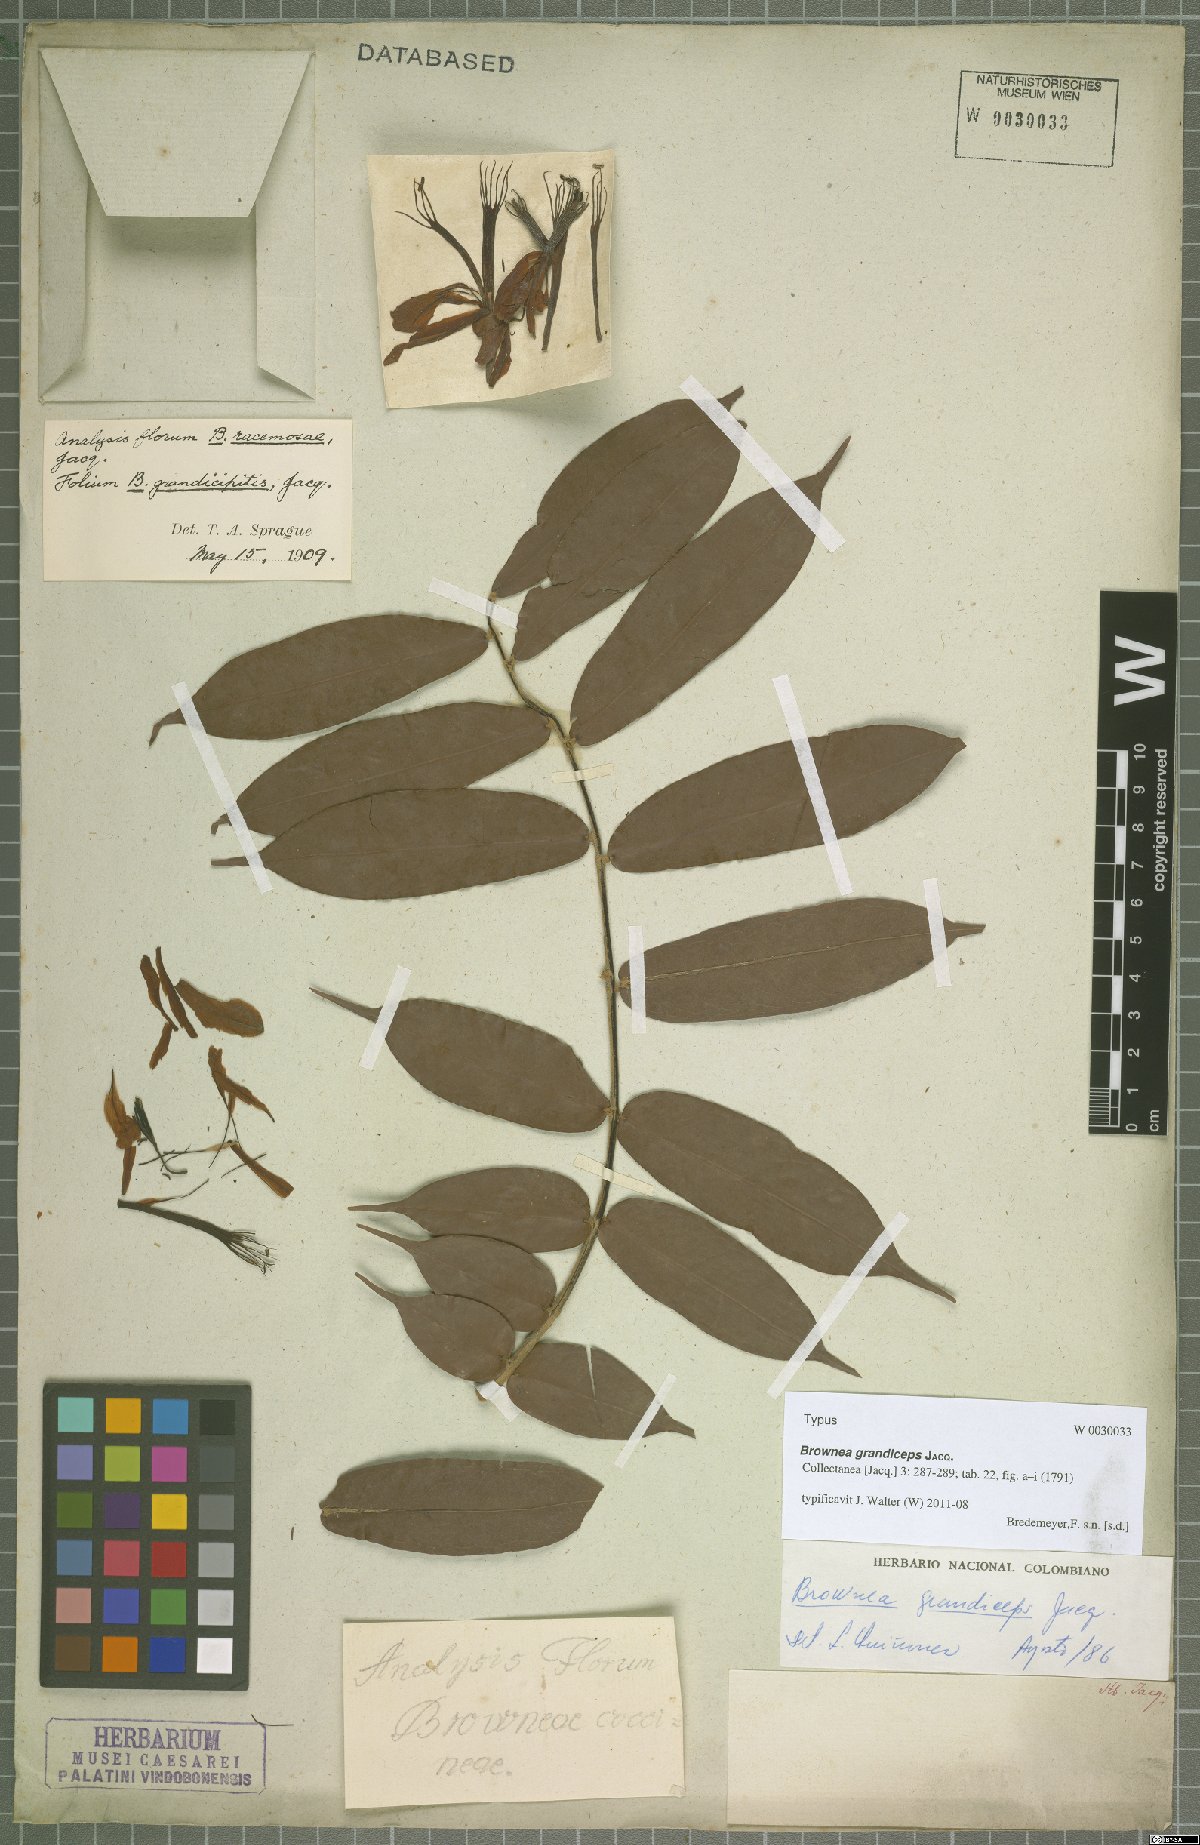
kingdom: Plantae
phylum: Tracheophyta
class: Magnoliopsida
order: Fabales
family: Fabaceae
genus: Brownea
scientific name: Brownea grandiceps
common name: Rose-of-venezuela
